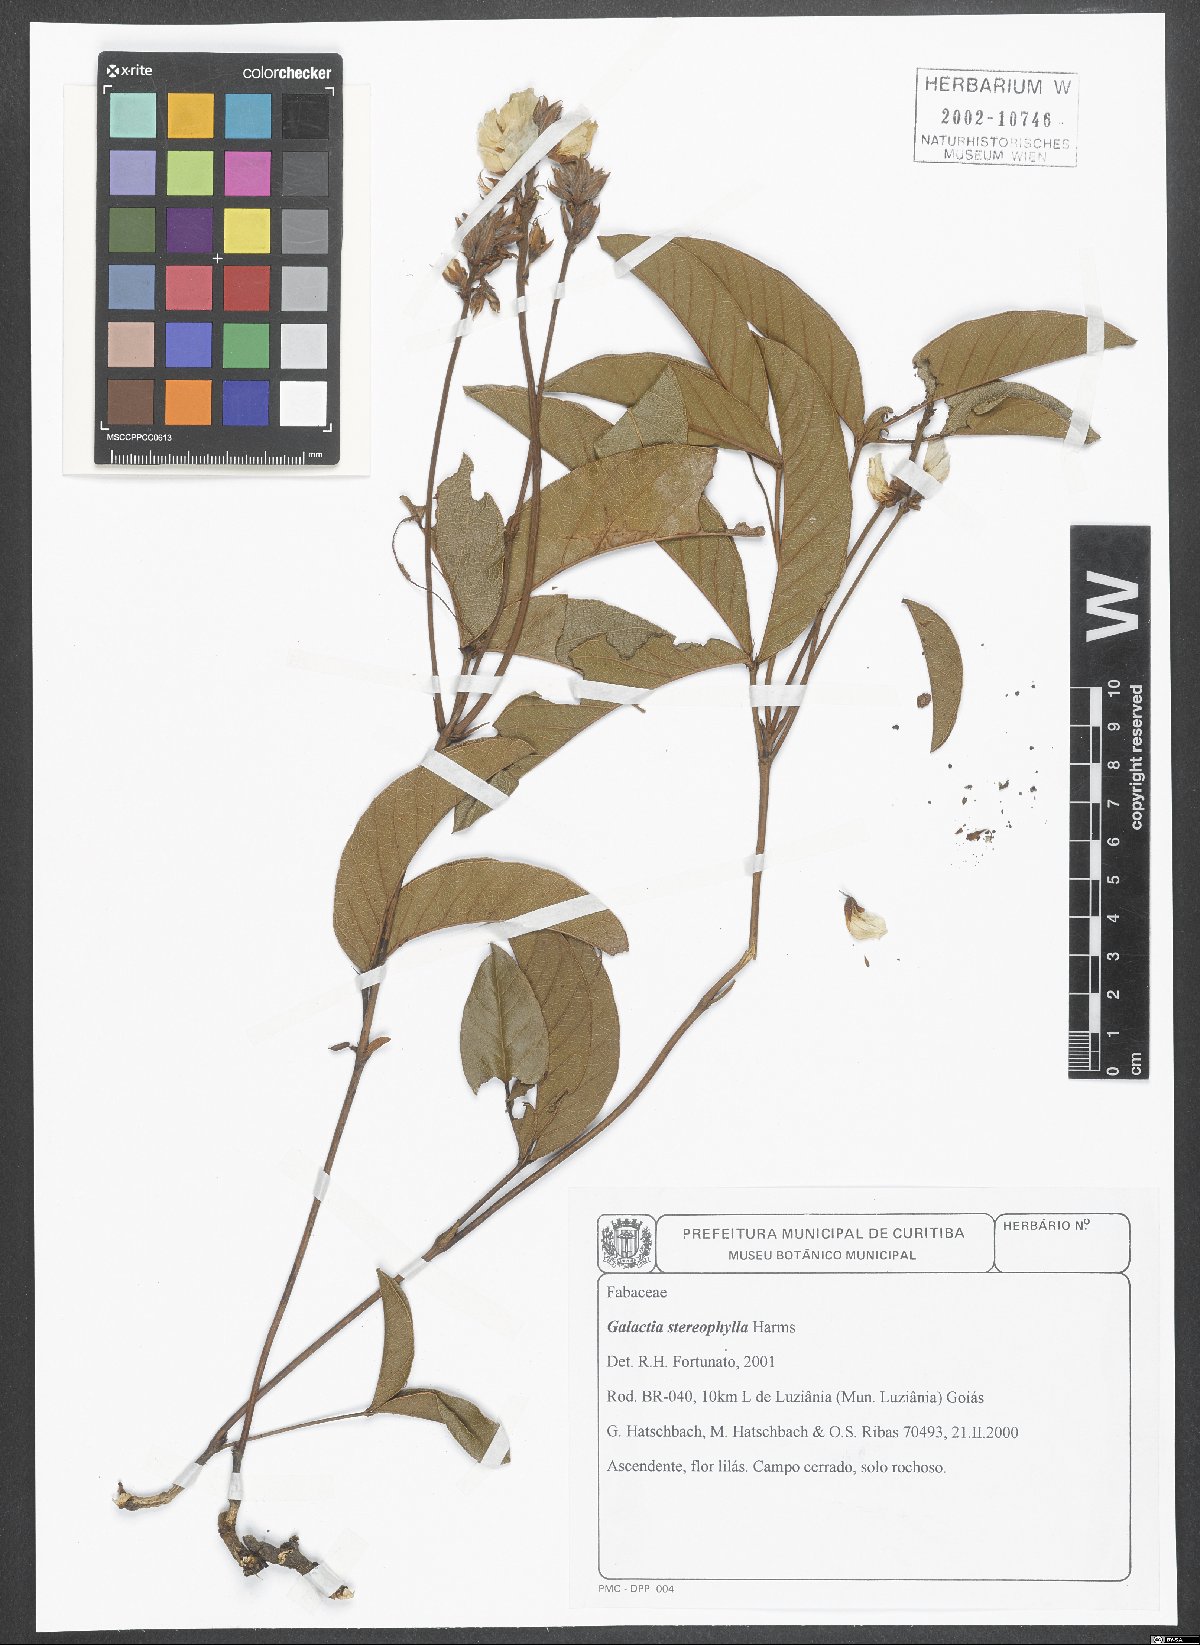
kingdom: Plantae
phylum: Tracheophyta
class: Magnoliopsida
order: Fabales
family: Fabaceae
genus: Collaea
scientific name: Collaea stenophylla
